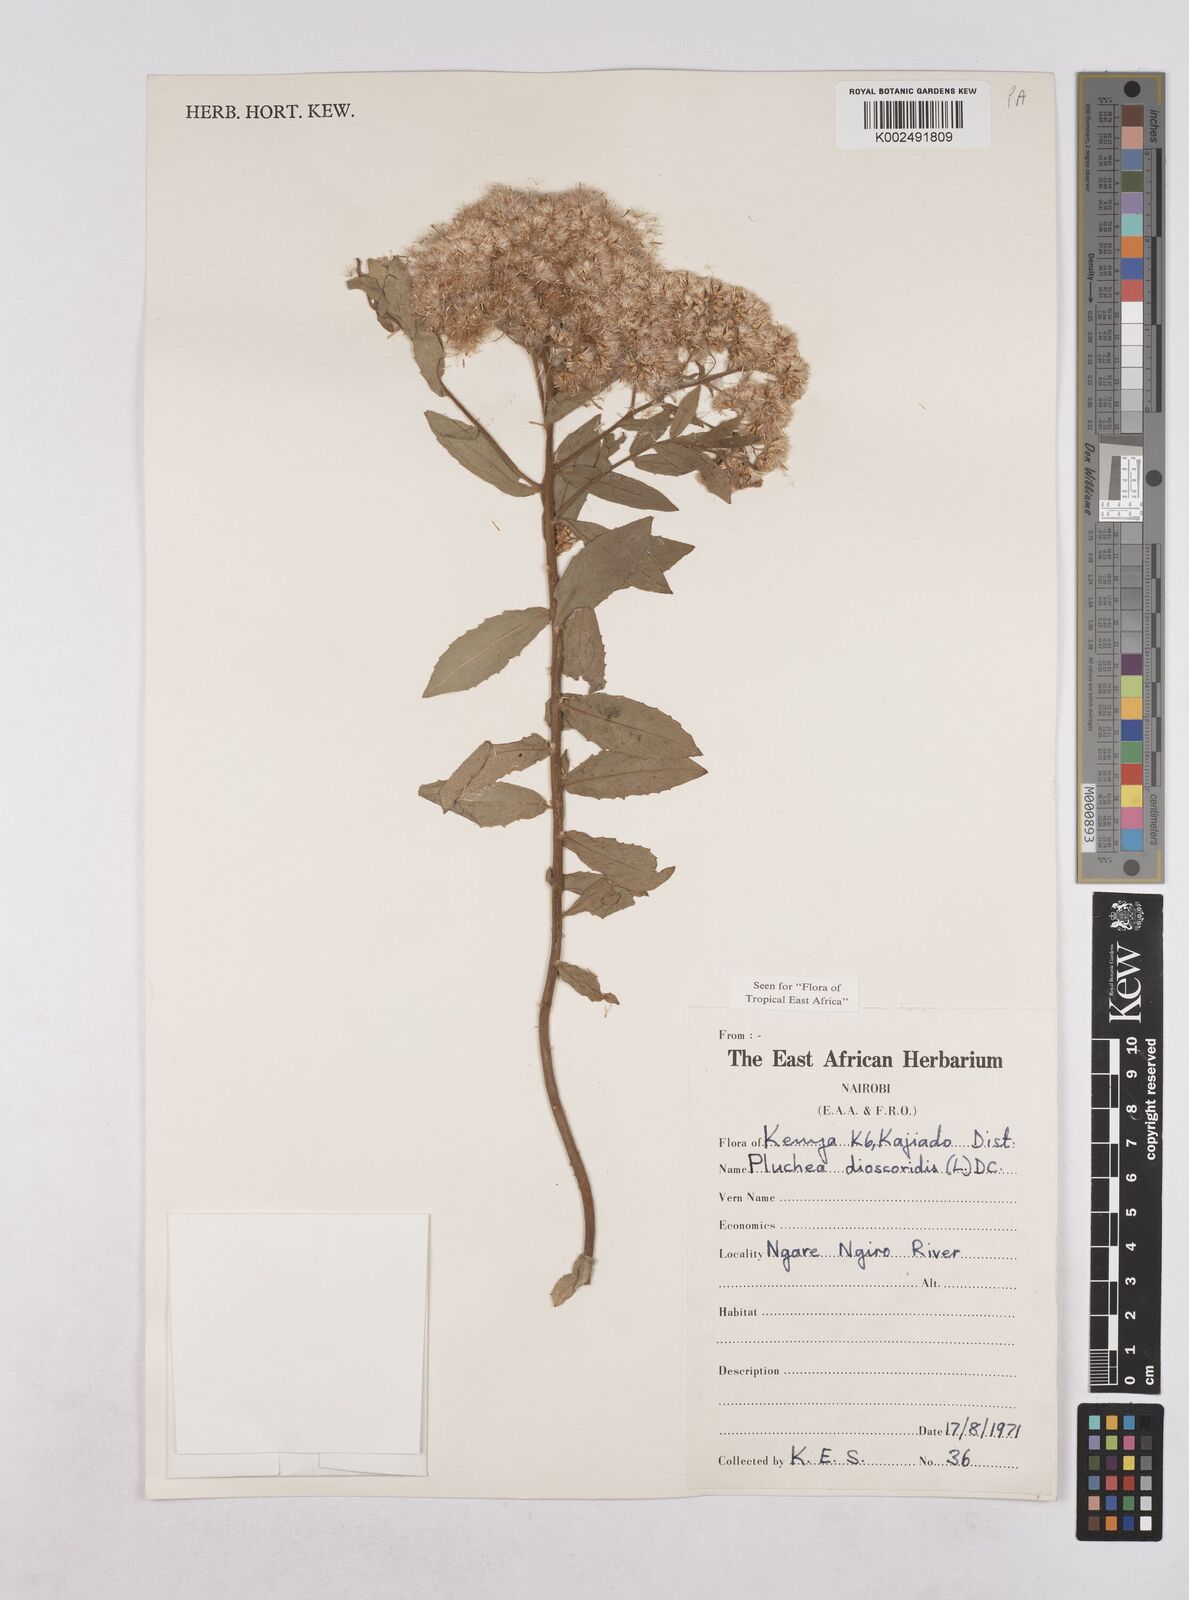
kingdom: Plantae
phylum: Tracheophyta
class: Magnoliopsida
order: Asterales
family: Asteraceae
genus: Pluchea
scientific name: Pluchea dioscoridis
